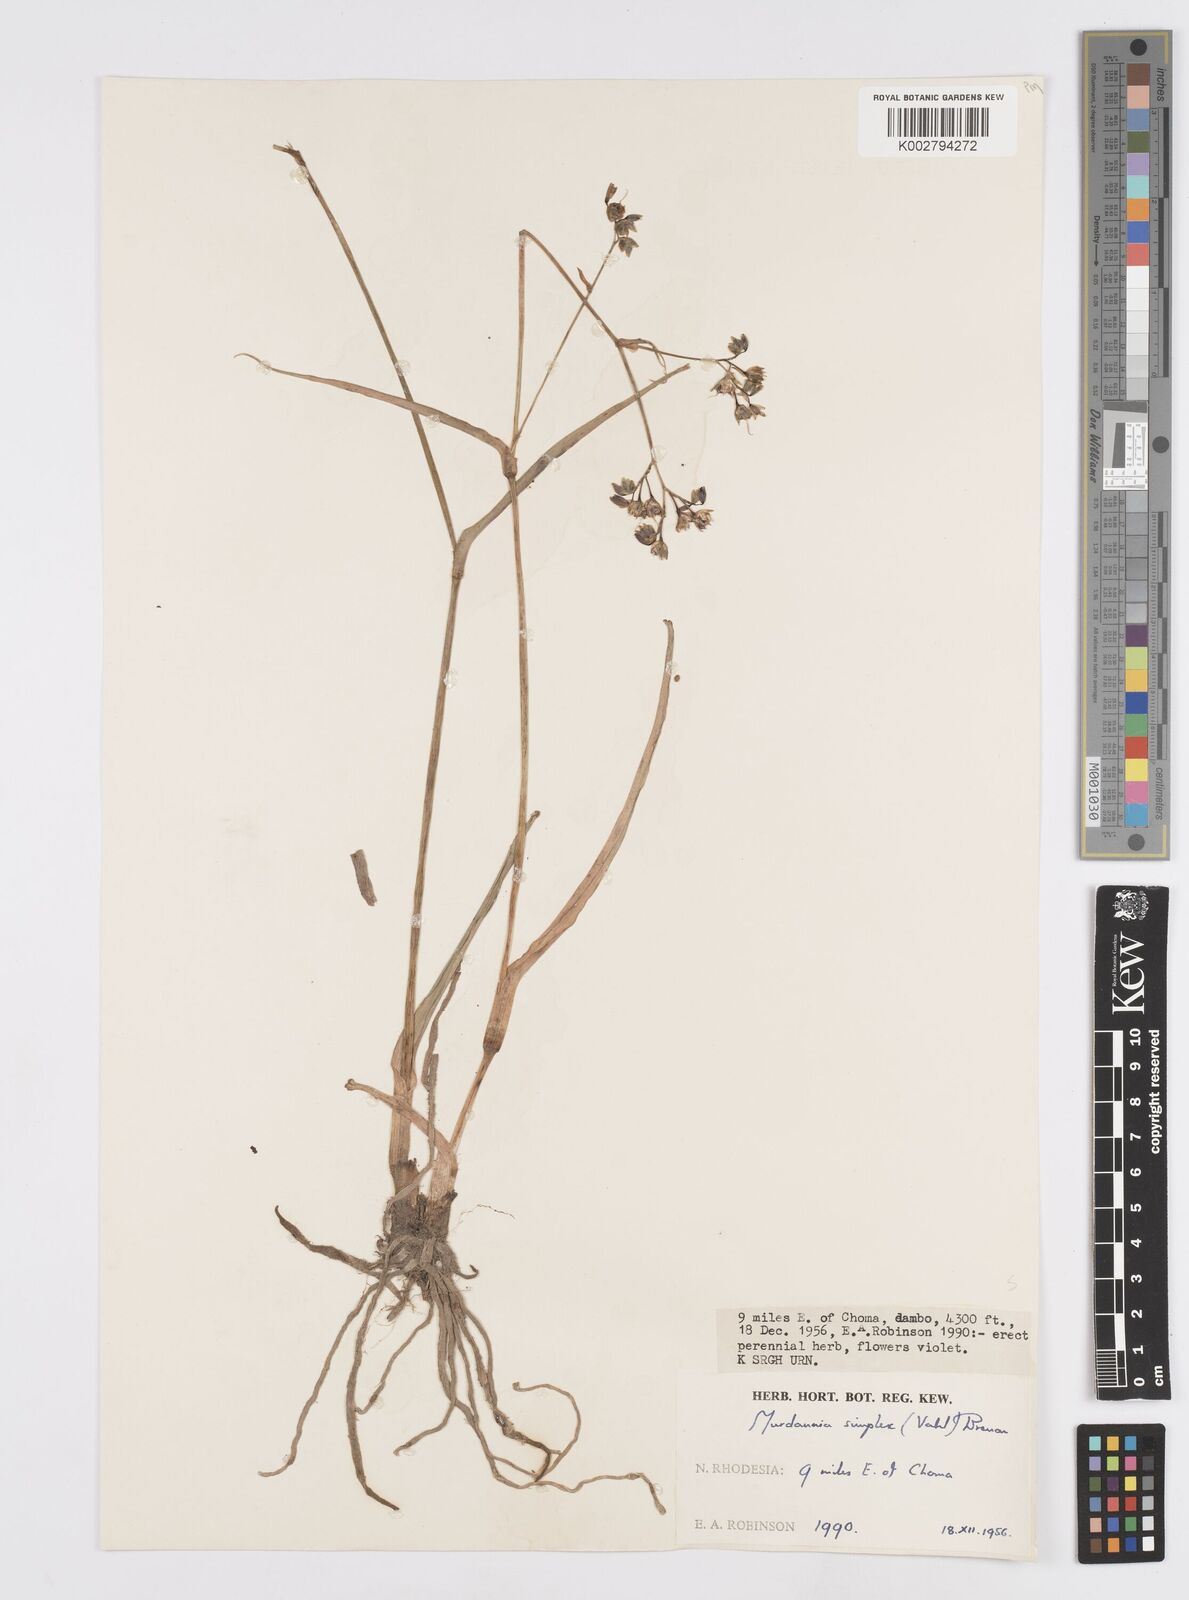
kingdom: Plantae
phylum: Tracheophyta
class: Liliopsida
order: Commelinales
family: Commelinaceae
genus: Murdannia
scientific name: Murdannia simplex
